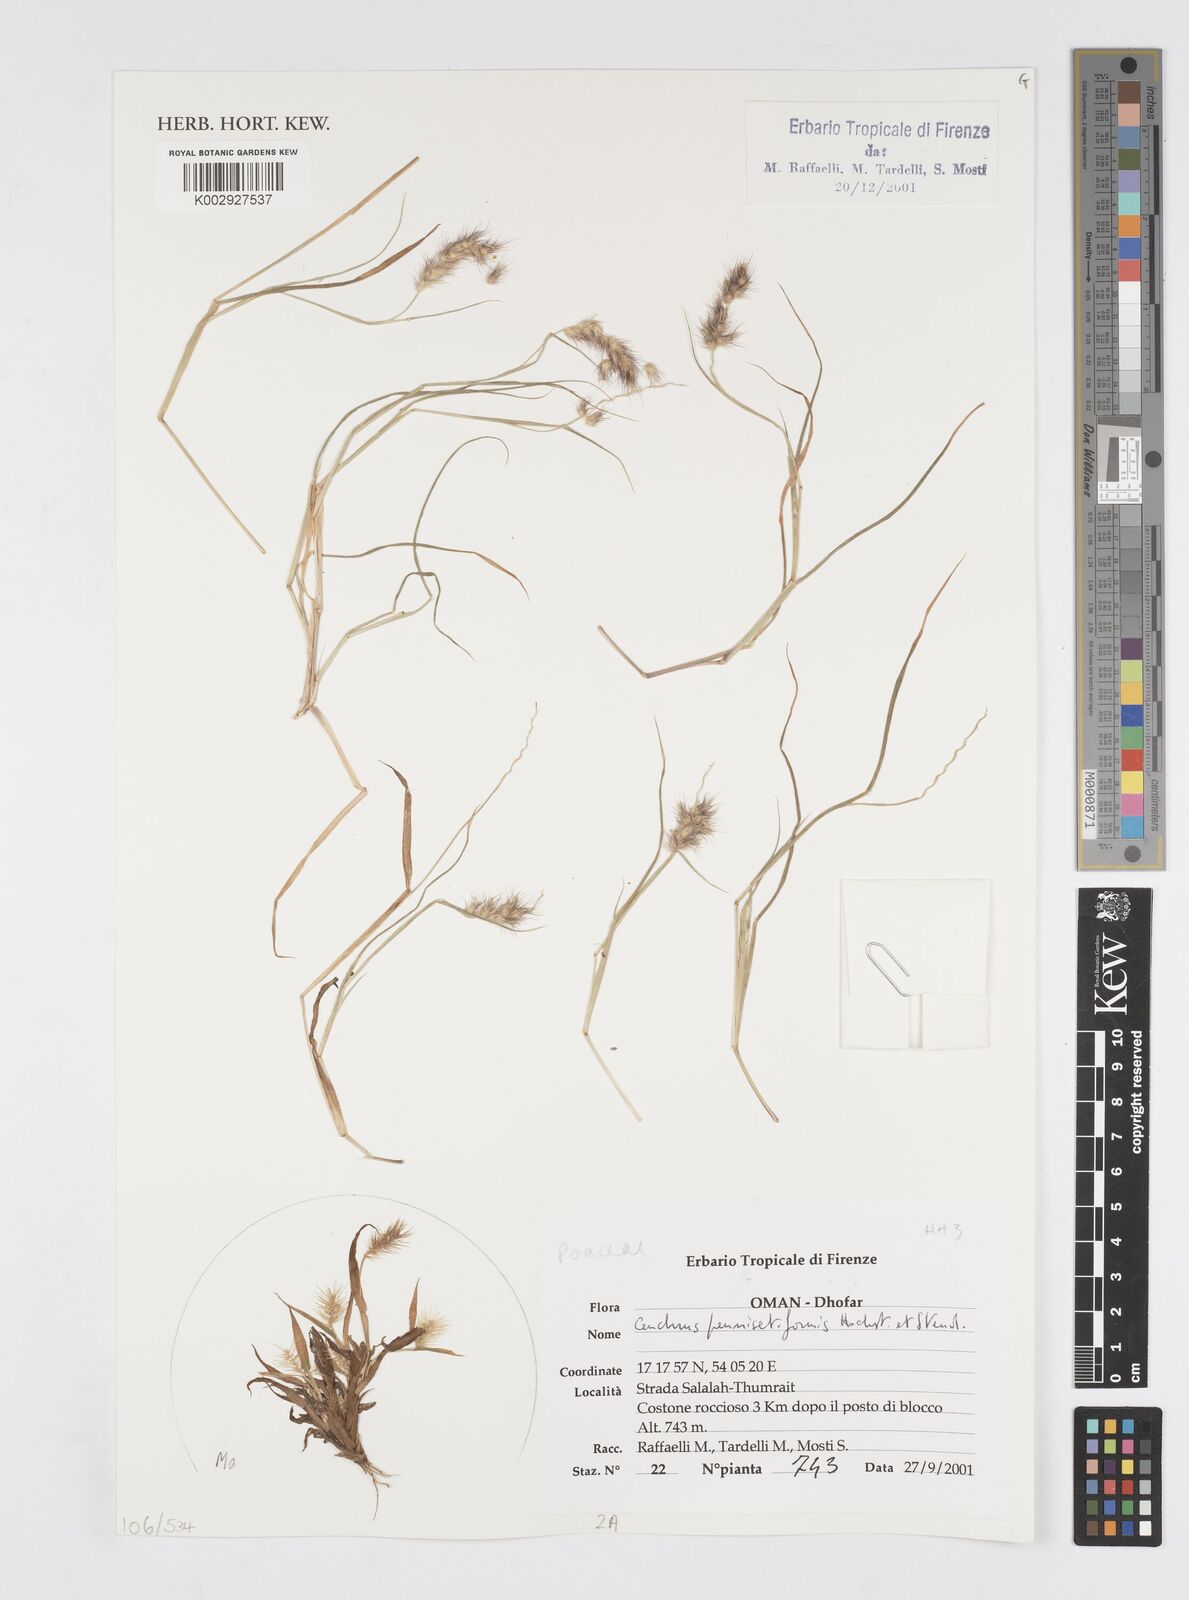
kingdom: Plantae
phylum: Tracheophyta
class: Liliopsida
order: Poales
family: Poaceae
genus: Cenchrus
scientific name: Cenchrus pennisetiformis
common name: Cloncurry
